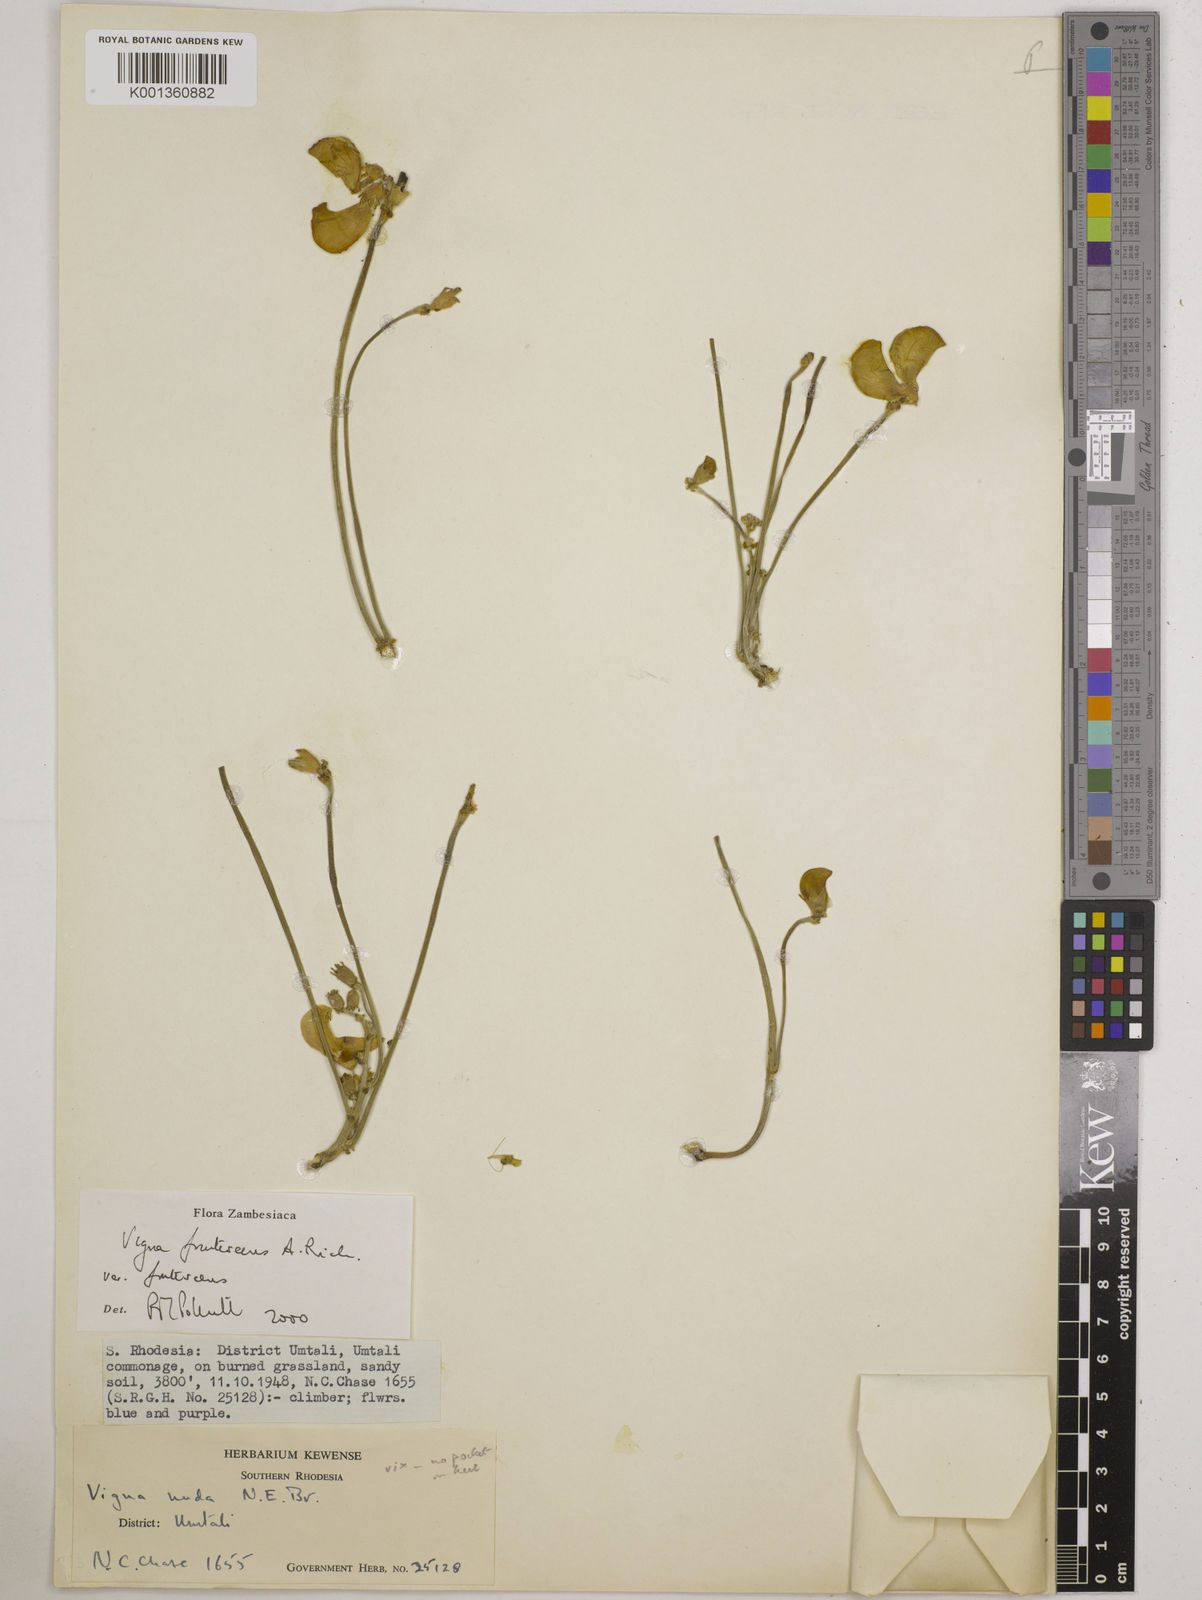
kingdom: Plantae
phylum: Tracheophyta
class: Magnoliopsida
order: Fabales
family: Fabaceae
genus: Vigna
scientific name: Vigna
